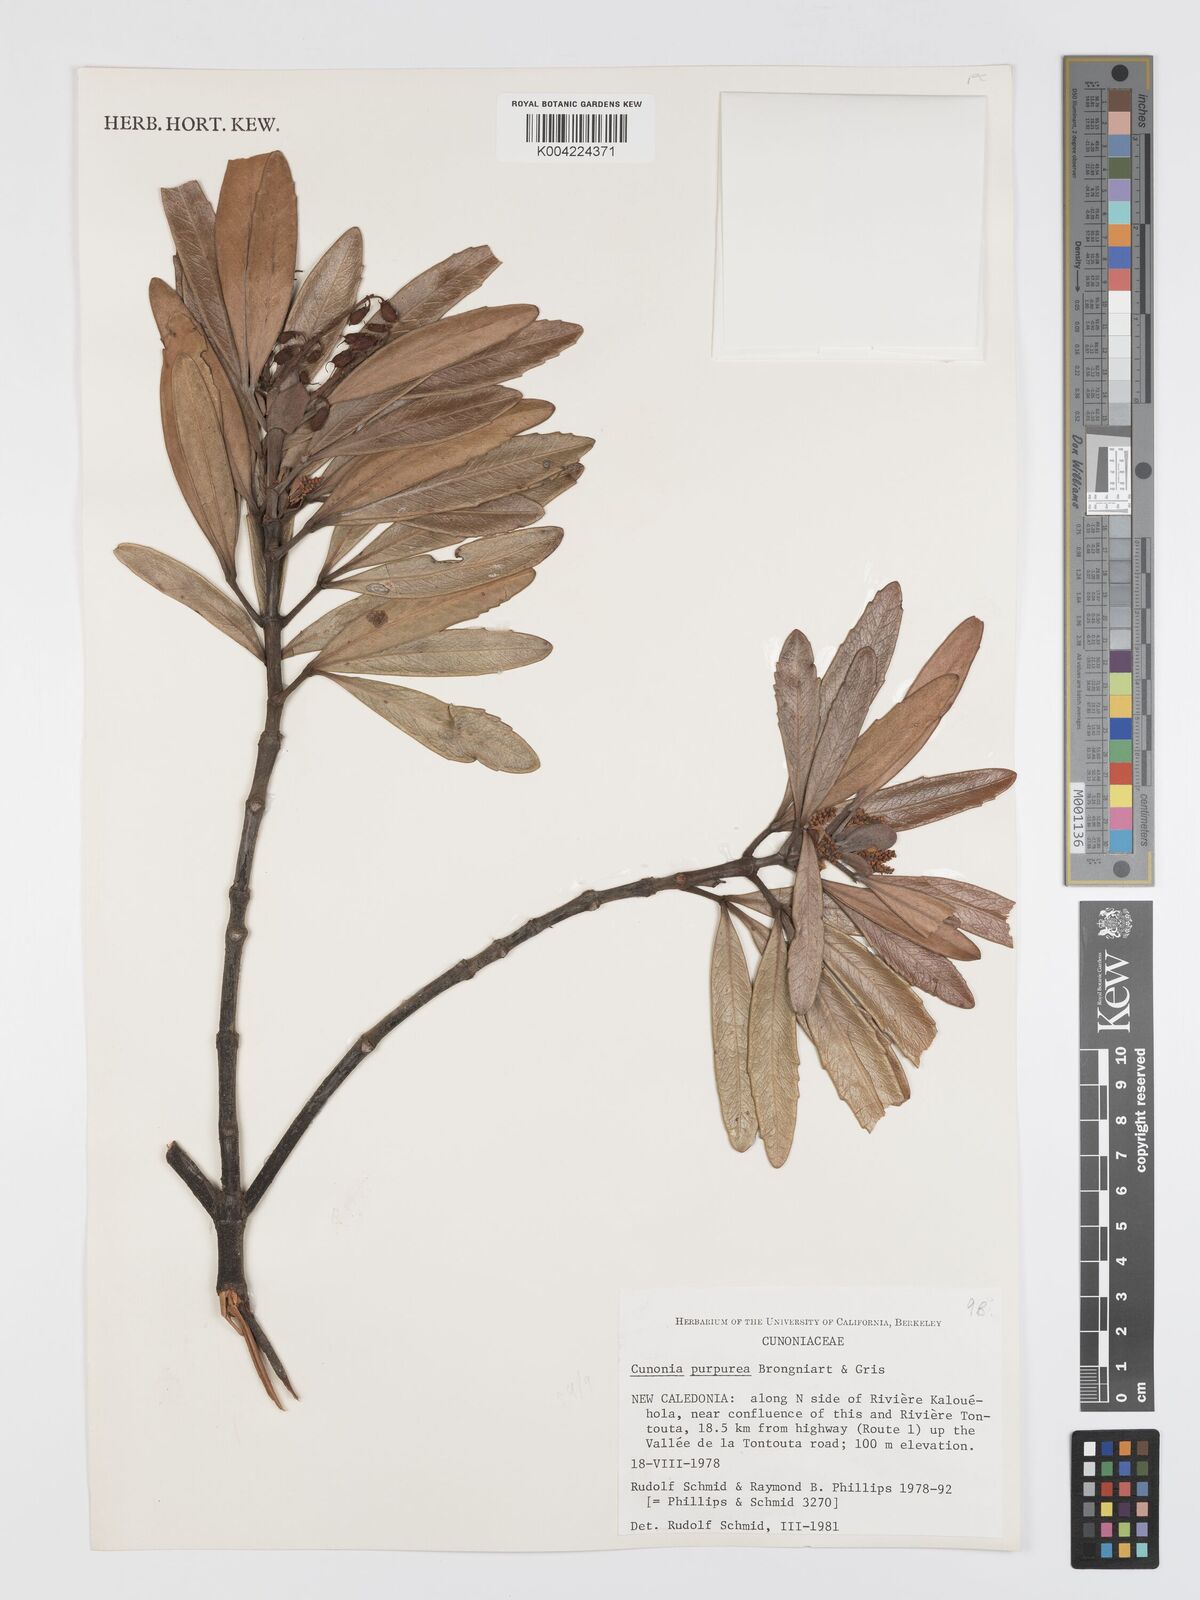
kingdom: Plantae
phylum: Tracheophyta
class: Magnoliopsida
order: Oxalidales
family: Cunoniaceae
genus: Cunonia
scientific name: Cunonia purpurea
